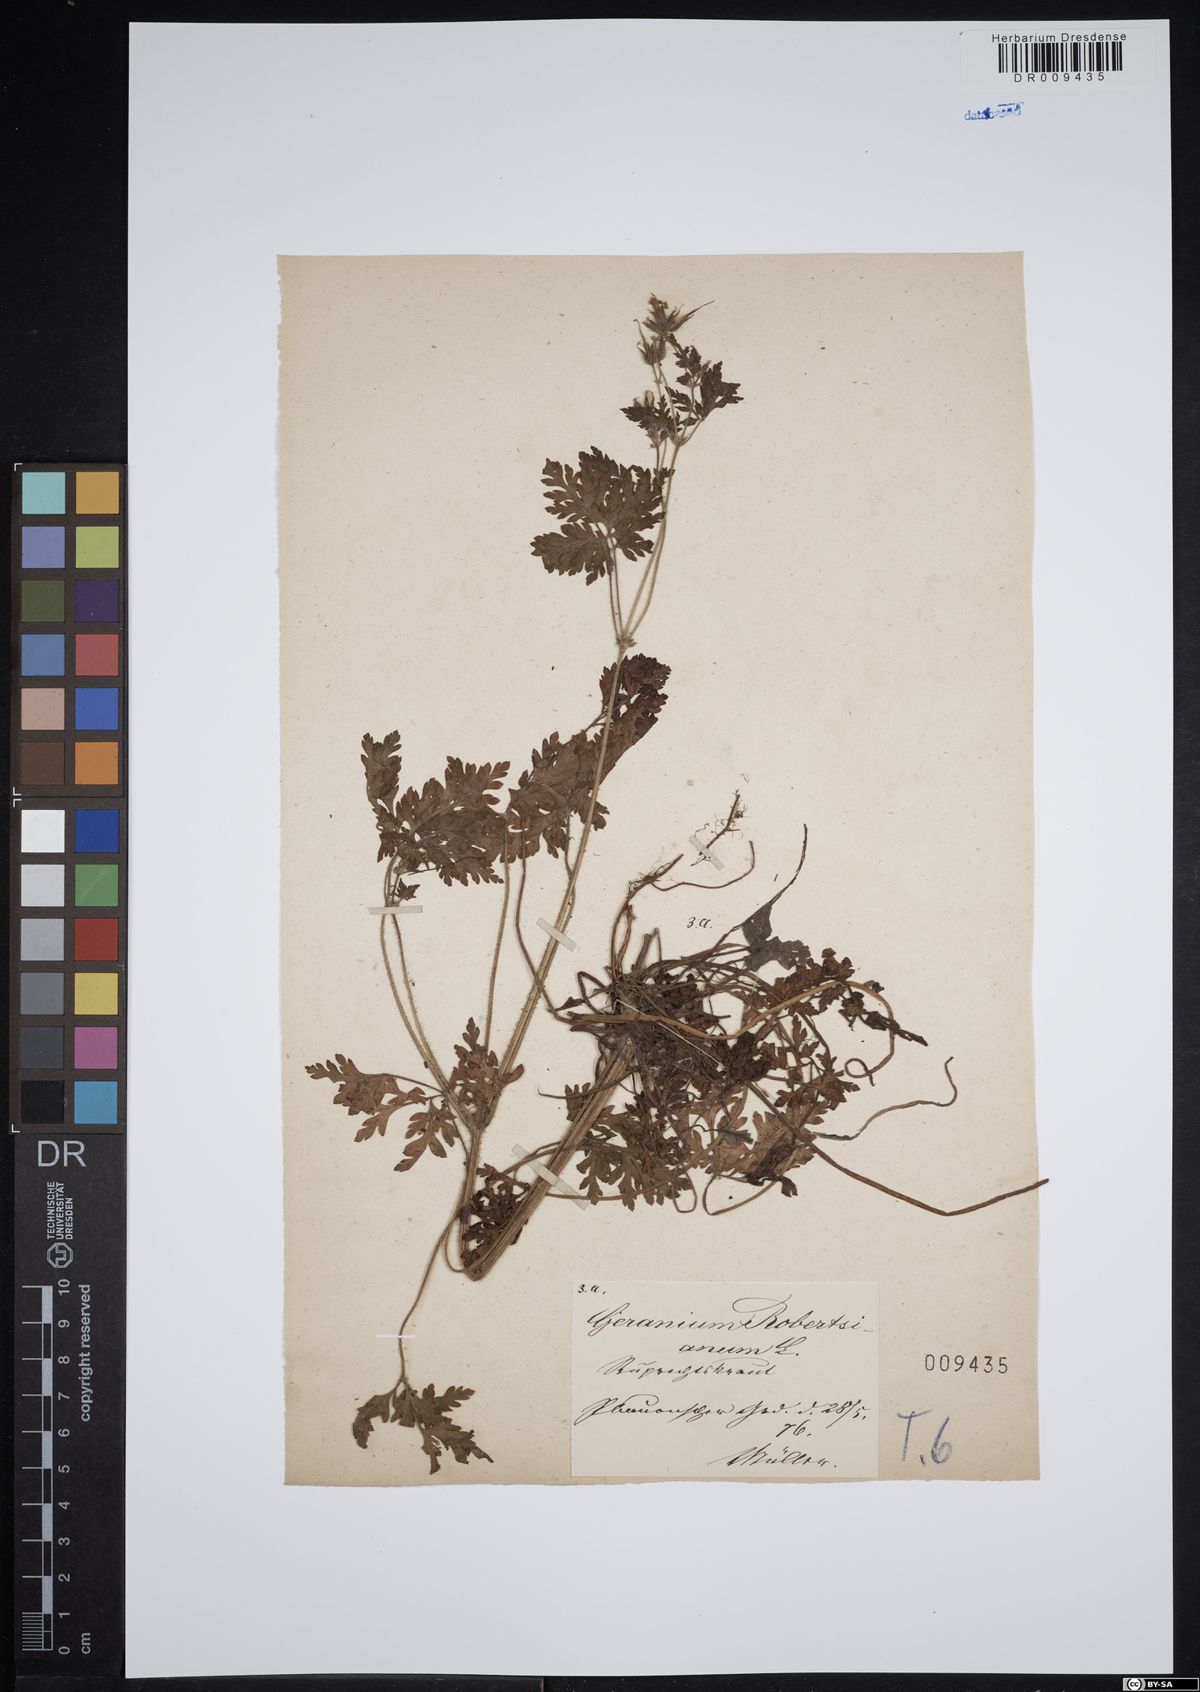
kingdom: Plantae
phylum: Tracheophyta
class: Magnoliopsida
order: Geraniales
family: Geraniaceae
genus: Geranium
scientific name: Geranium robertianum
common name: Herb-robert
